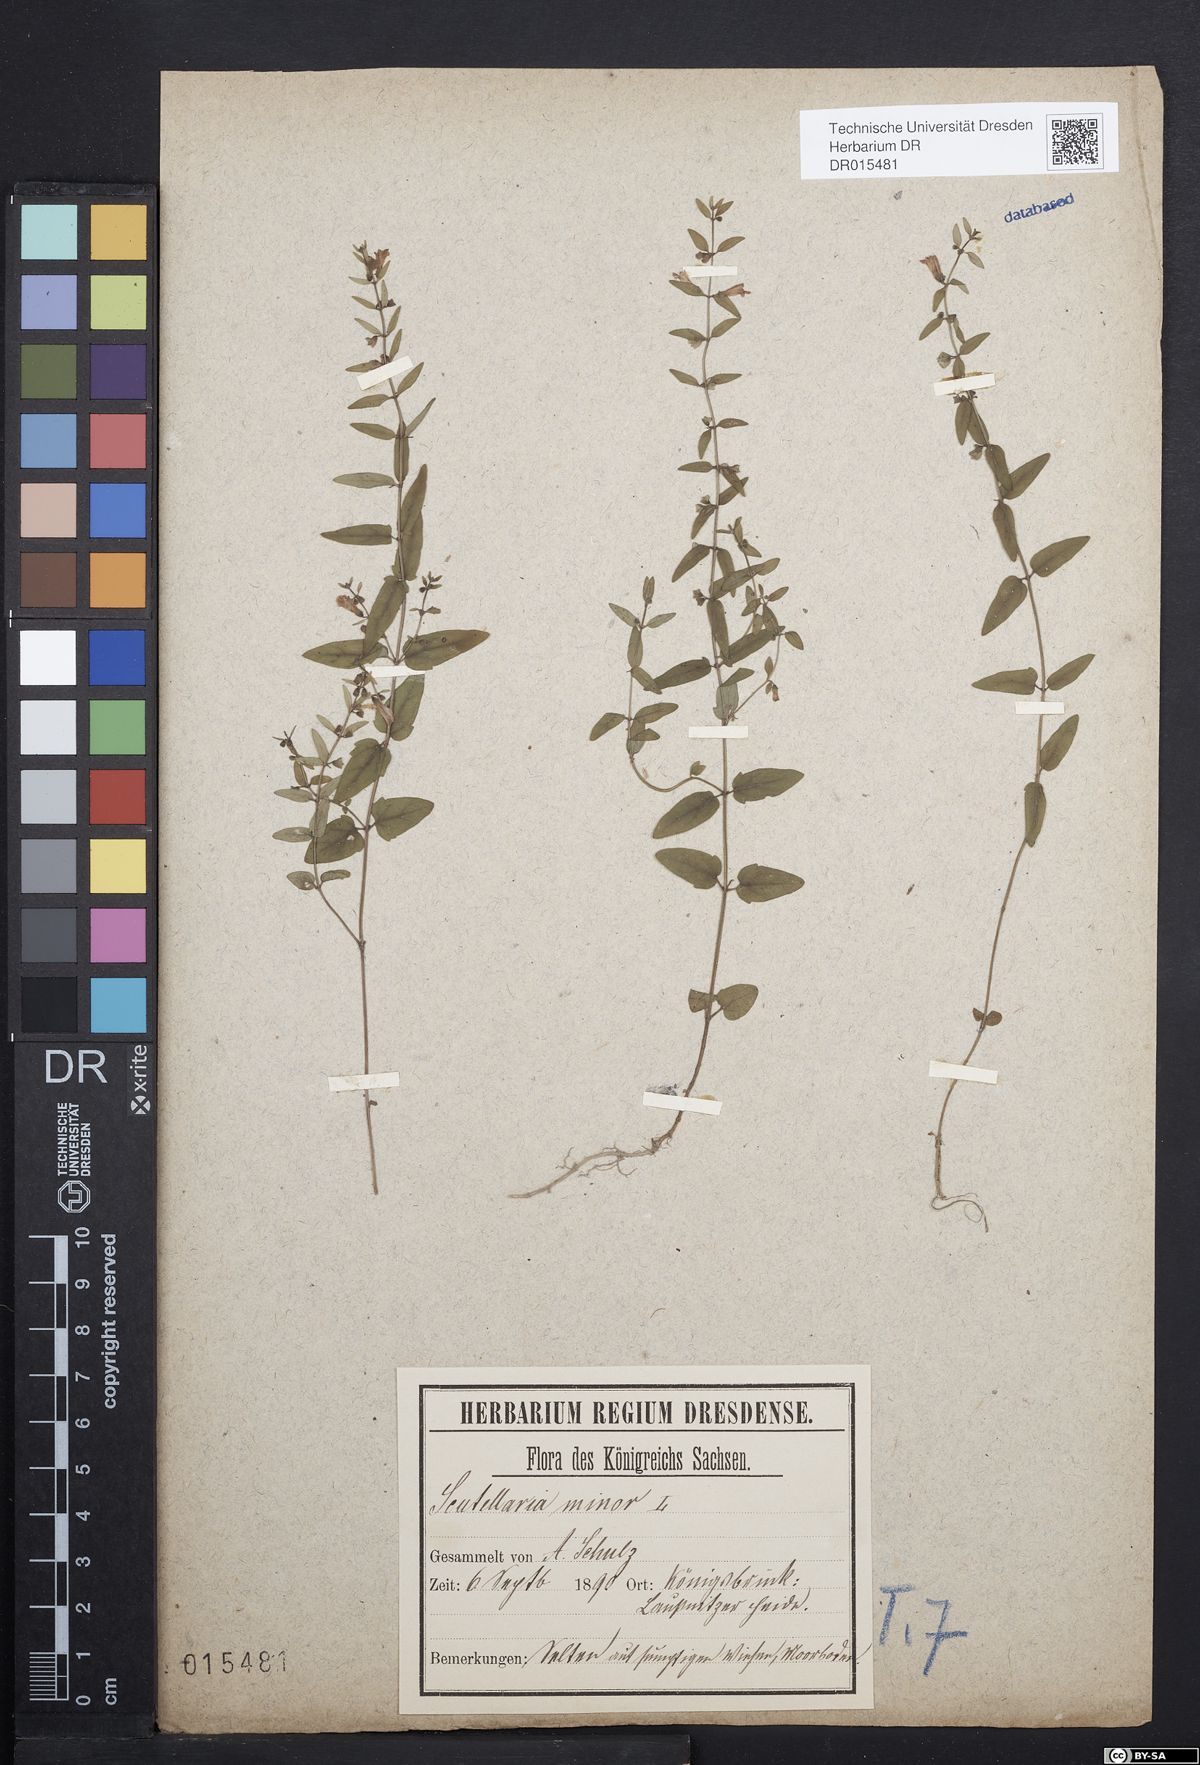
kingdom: Plantae
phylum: Tracheophyta
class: Magnoliopsida
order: Lamiales
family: Lamiaceae
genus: Scutellaria
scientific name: Scutellaria minor
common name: Lesser skullcap
